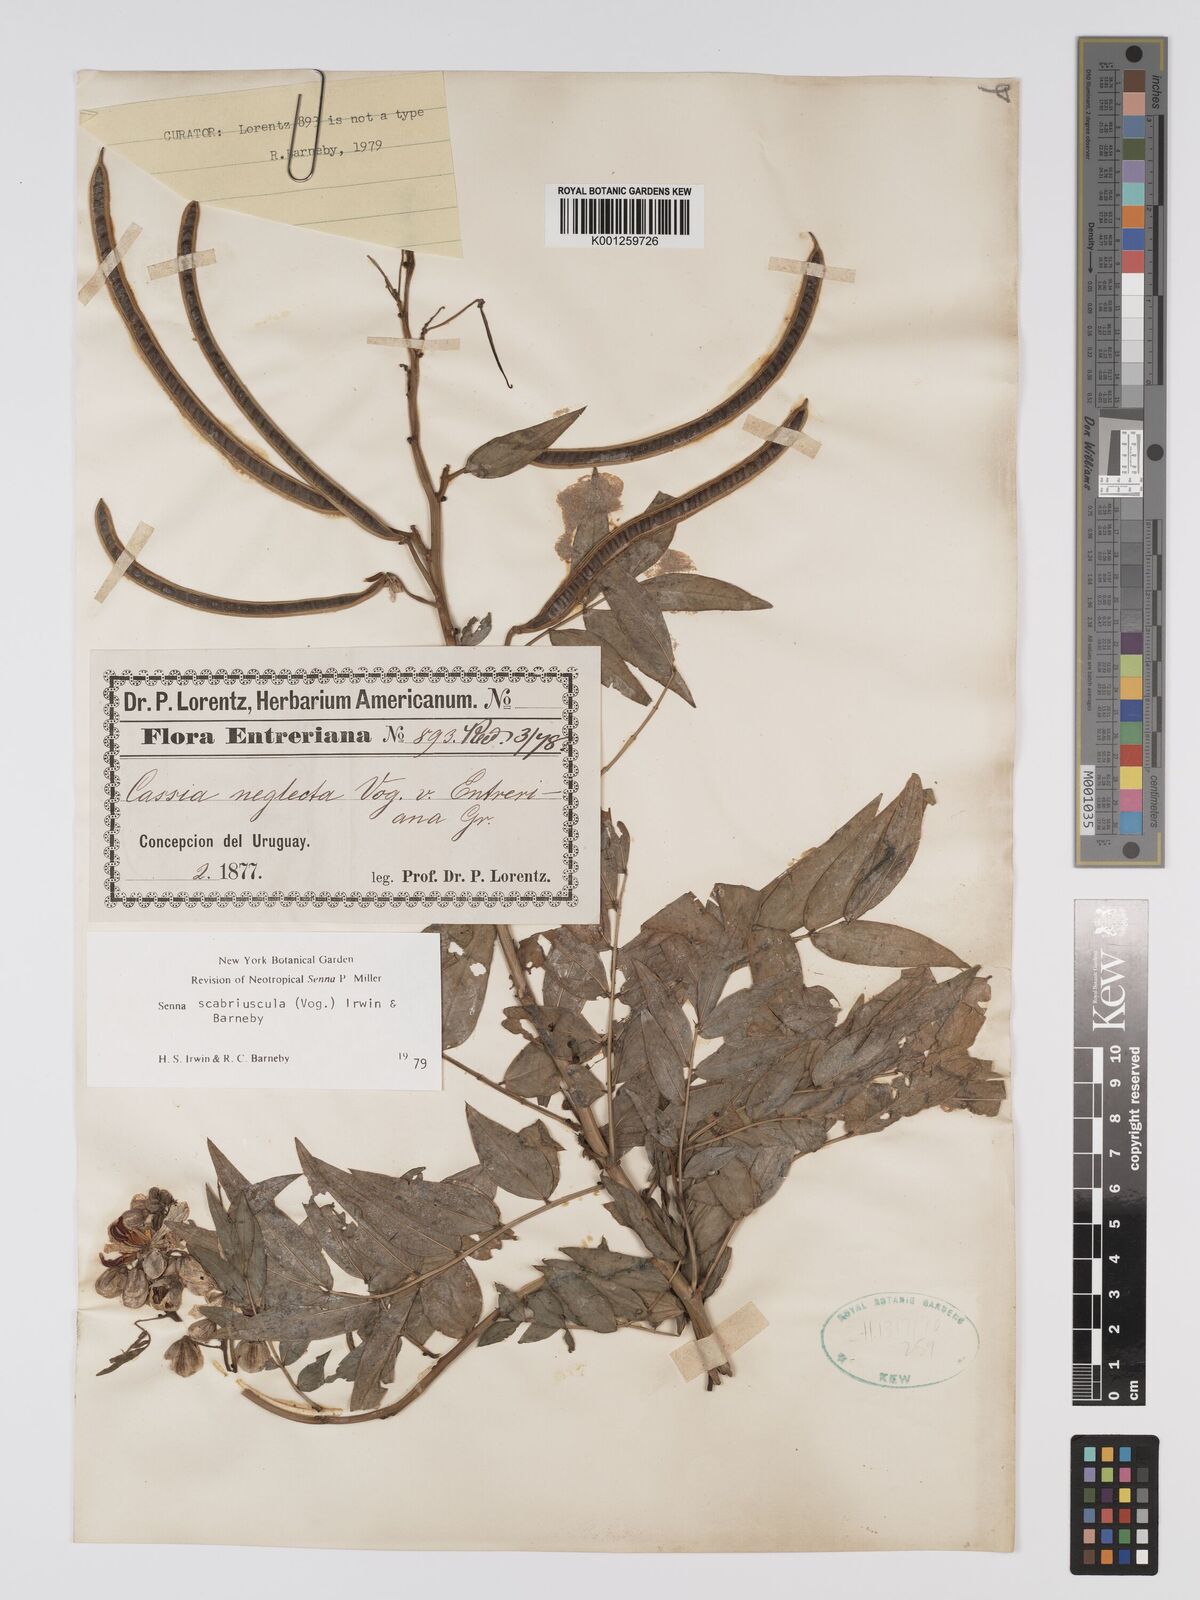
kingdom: Plantae
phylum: Tracheophyta
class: Magnoliopsida
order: Fabales
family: Fabaceae
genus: Senna
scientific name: Senna
